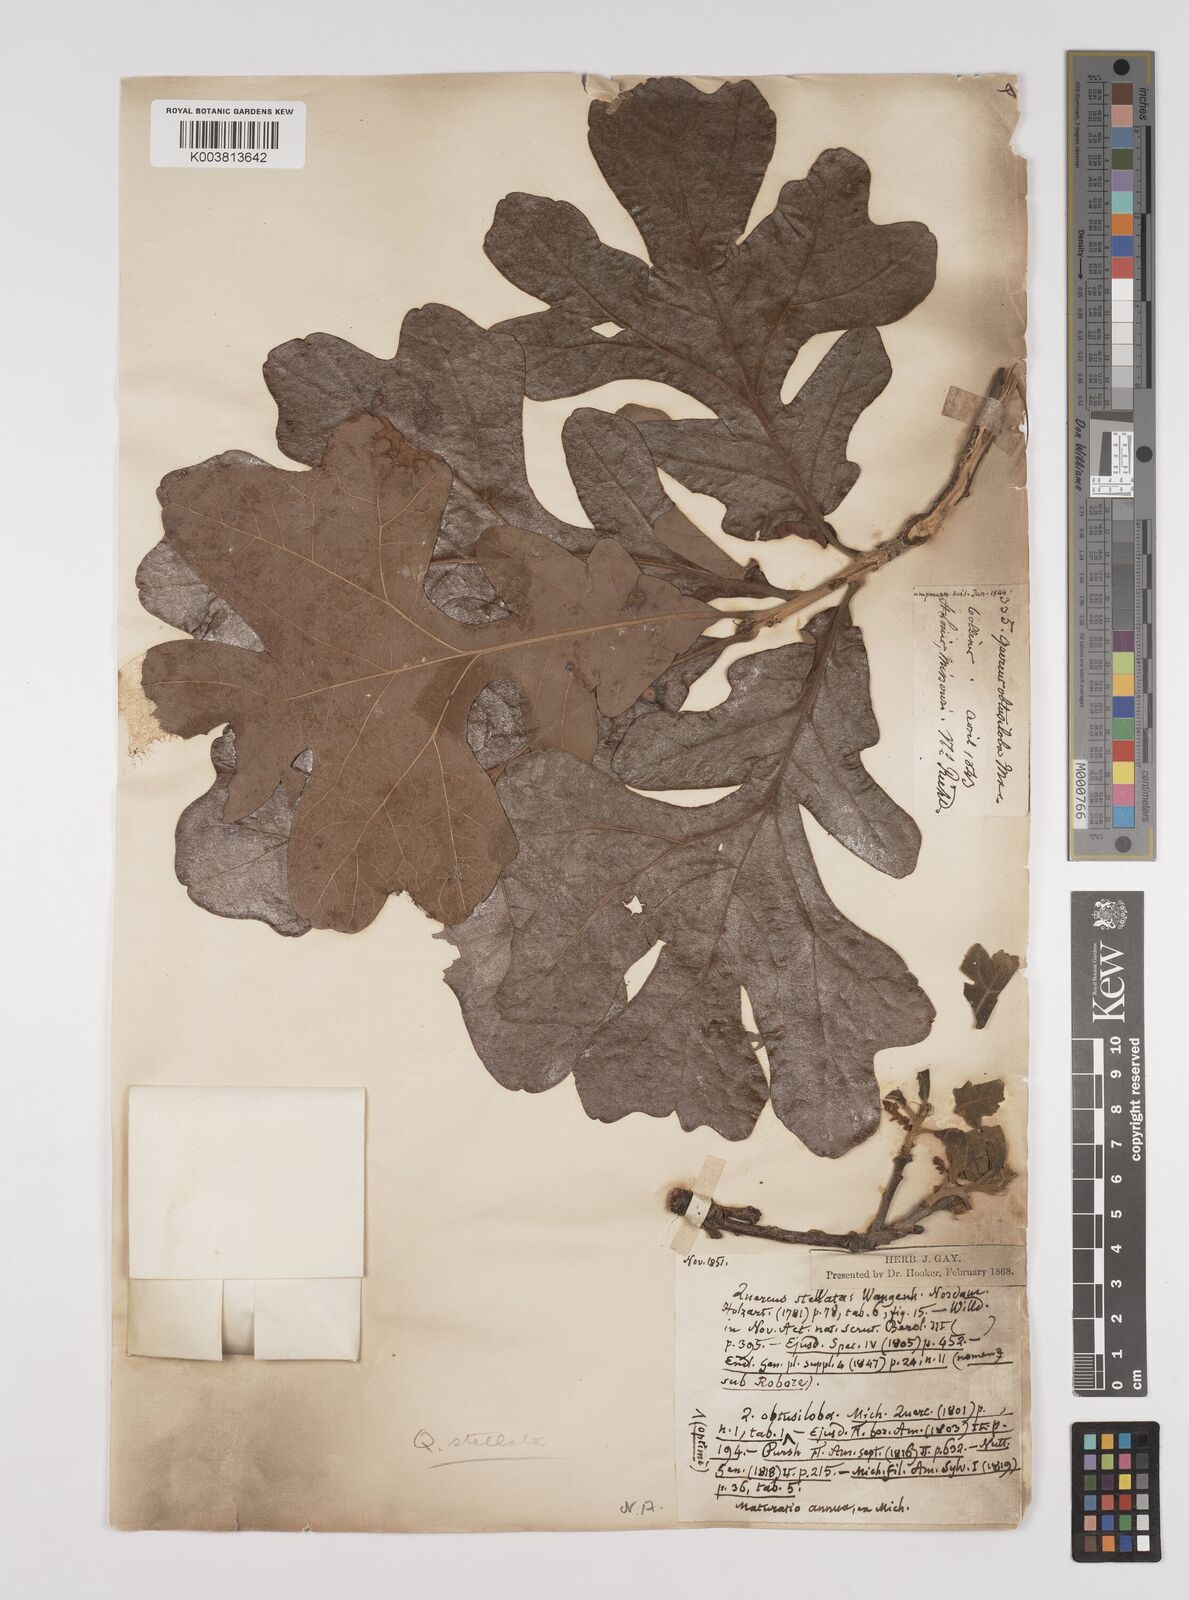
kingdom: Plantae
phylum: Tracheophyta
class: Magnoliopsida
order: Fagales
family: Fagaceae
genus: Quercus
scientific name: Quercus stellata
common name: Post oak
